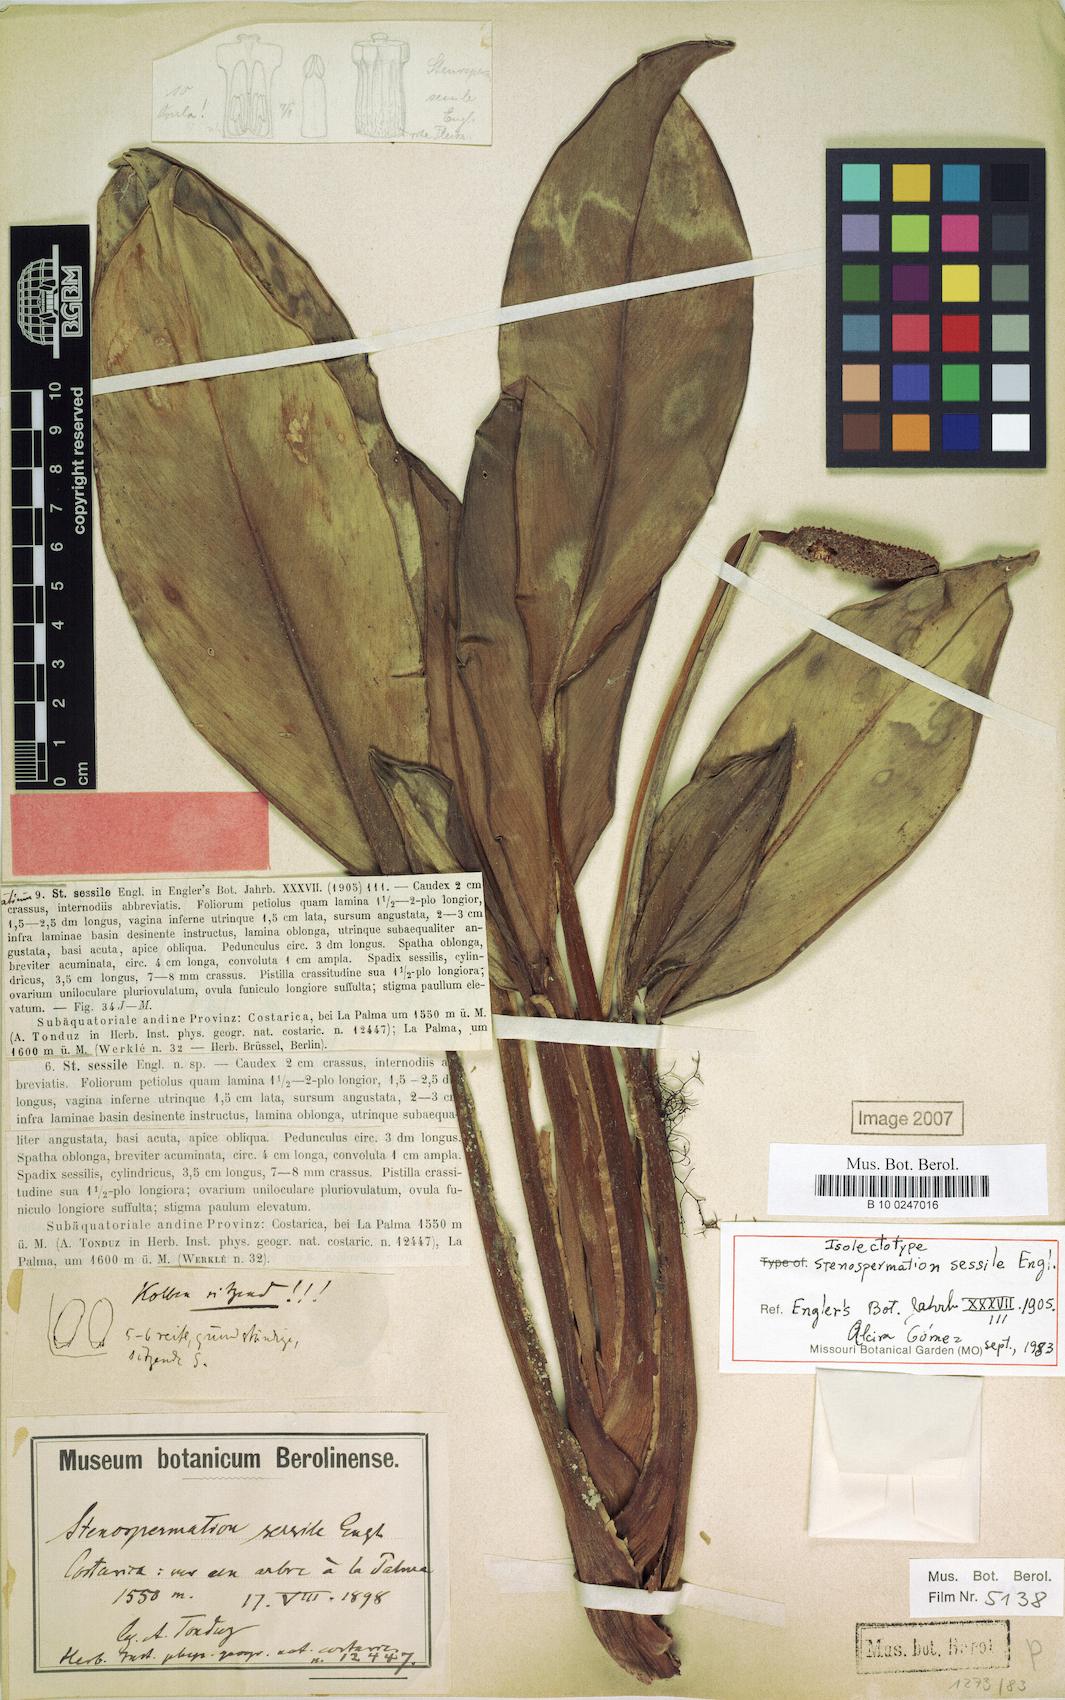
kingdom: Plantae
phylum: Tracheophyta
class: Liliopsida
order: Alismatales
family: Araceae
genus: Stenospermation
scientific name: Stenospermation sessile
